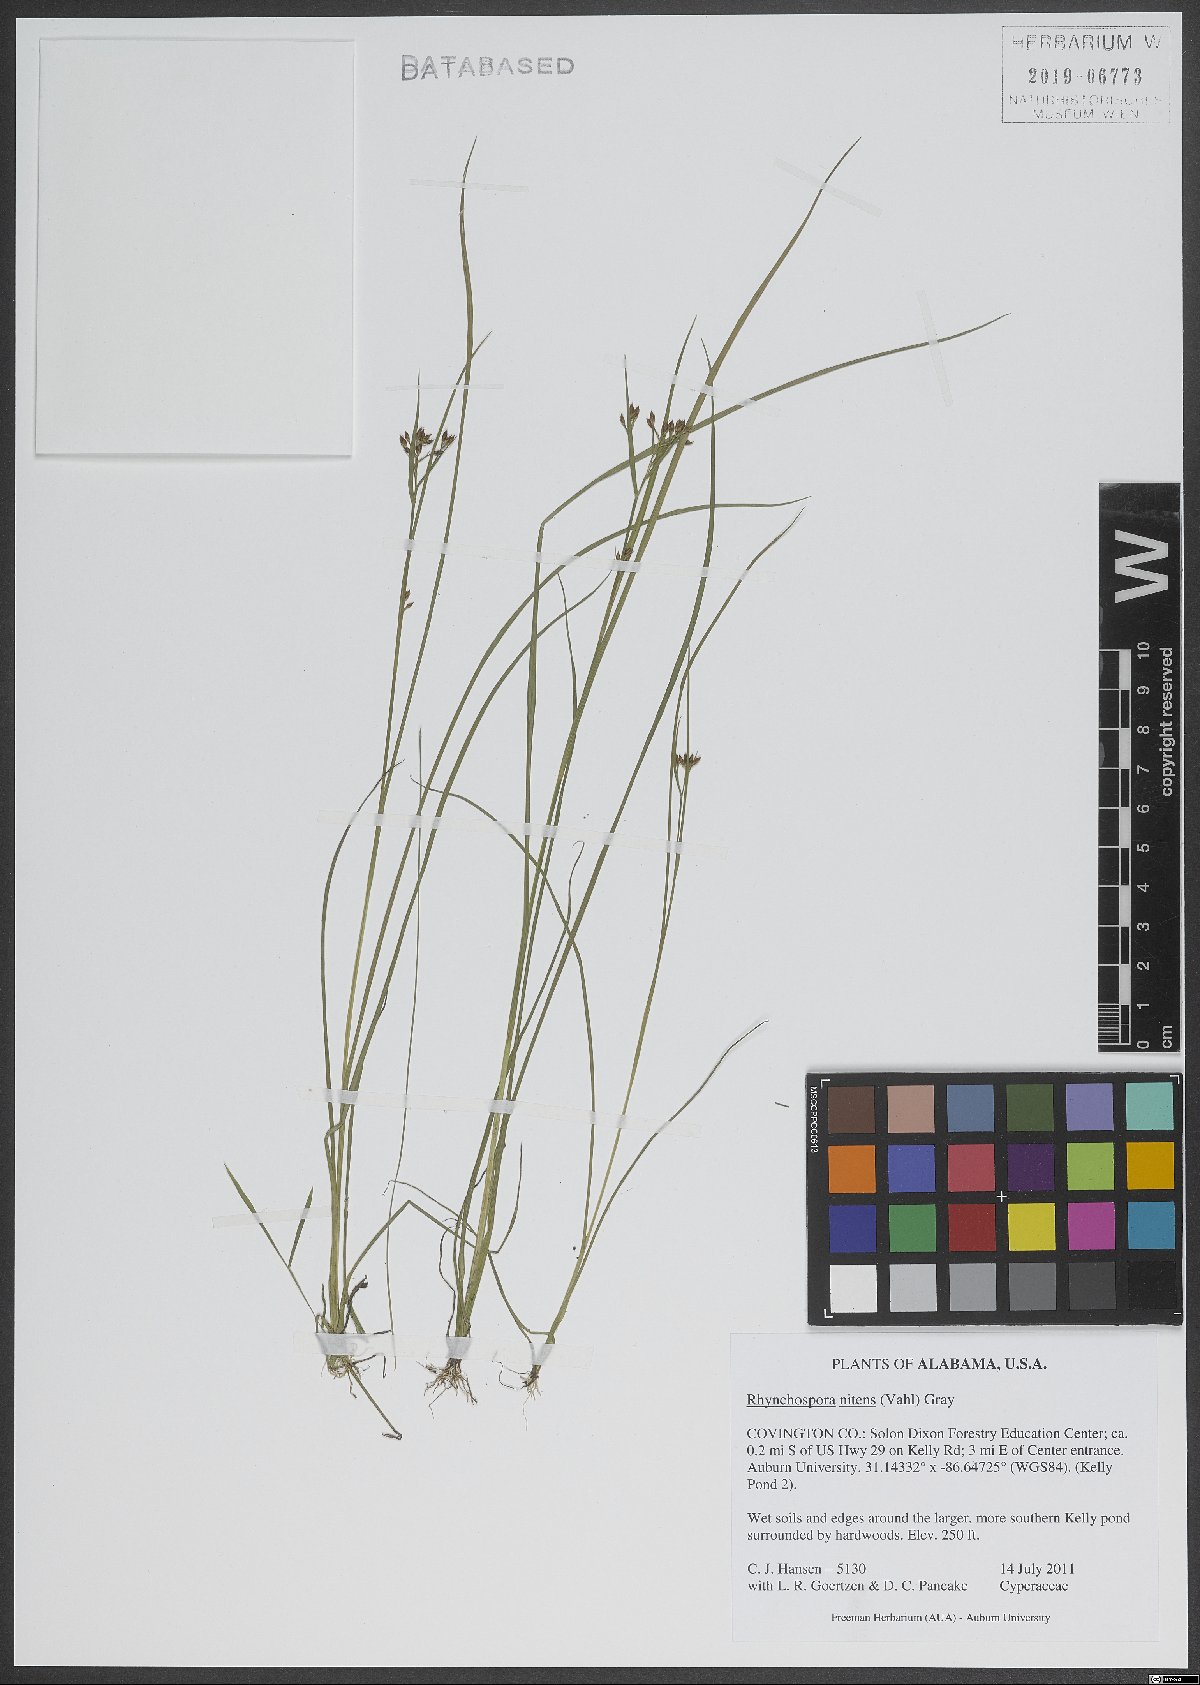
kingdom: Plantae
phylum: Tracheophyta
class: Liliopsida
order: Poales
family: Cyperaceae
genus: Rhynchospora
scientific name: Rhynchospora nitens
